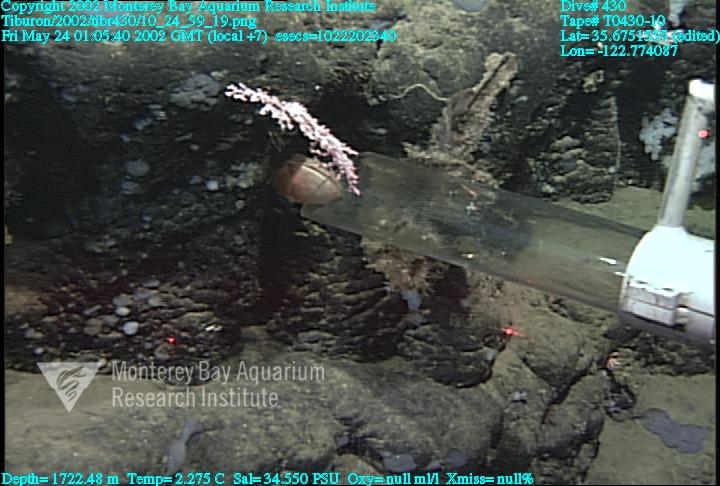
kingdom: Animalia
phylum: Porifera
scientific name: Porifera
